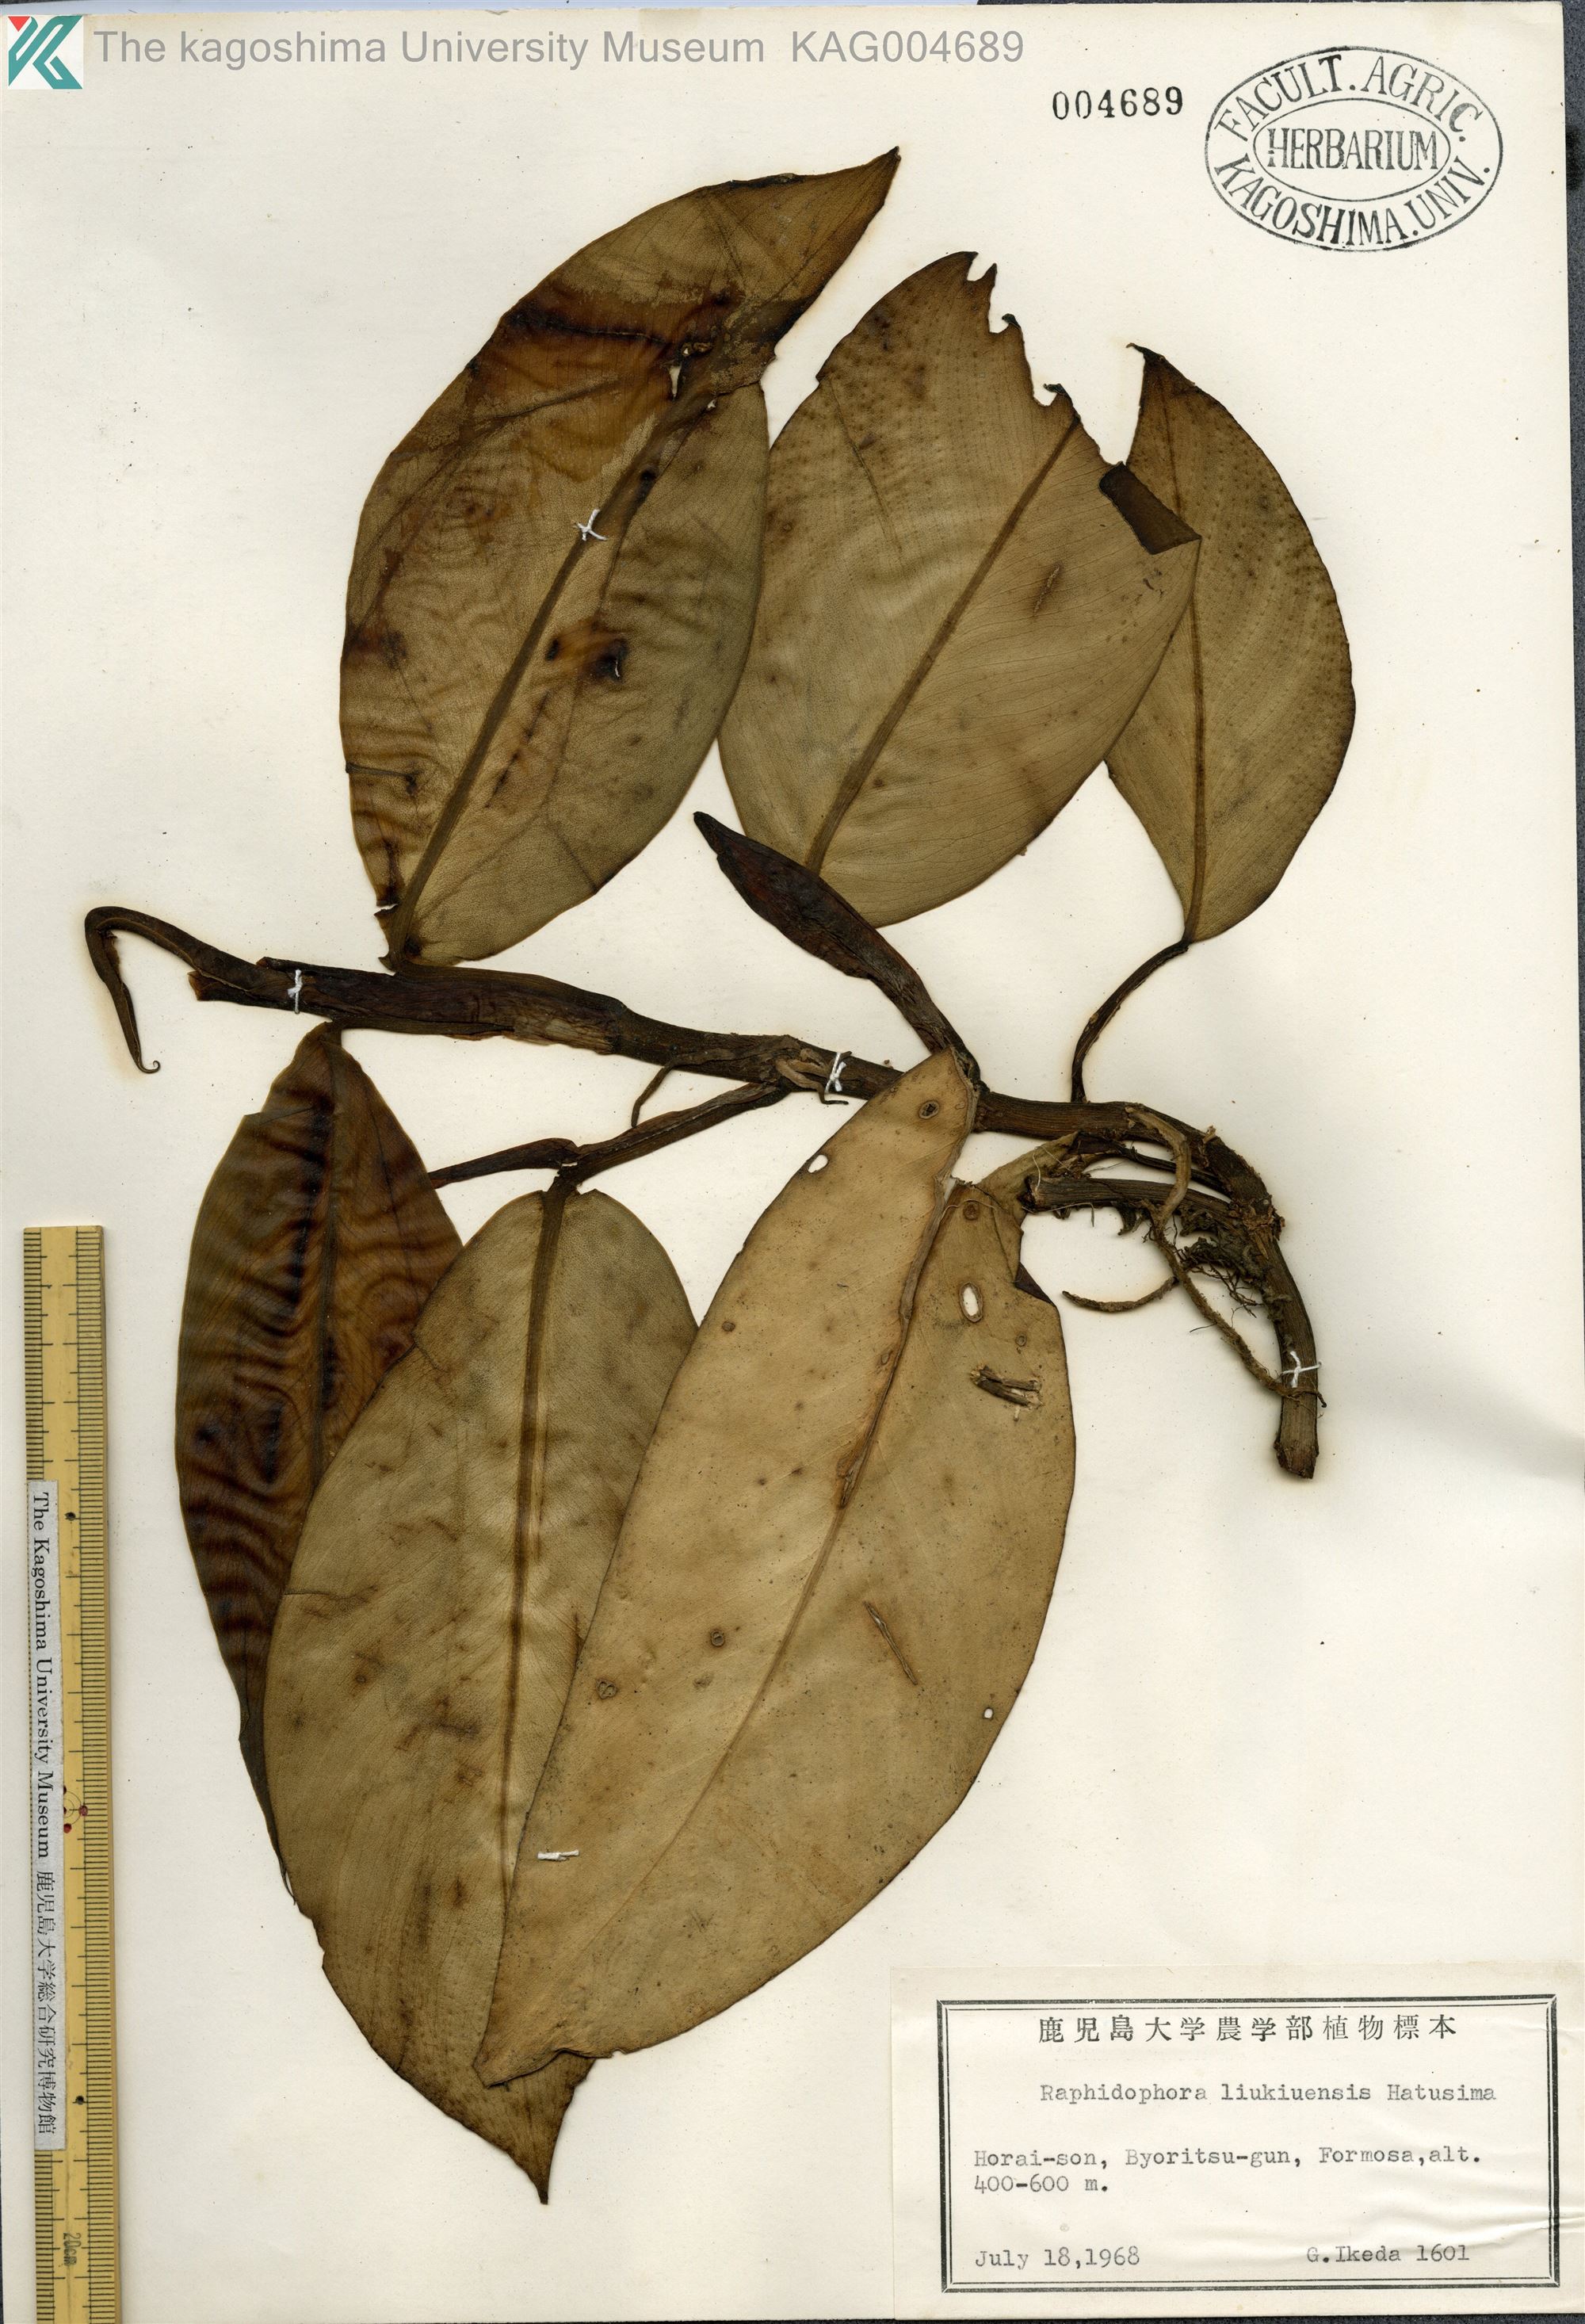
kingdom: Plantae
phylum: Tracheophyta
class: Liliopsida
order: Alismatales
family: Araceae
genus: Rhaphidophora
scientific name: Rhaphidophora liukiuensis
